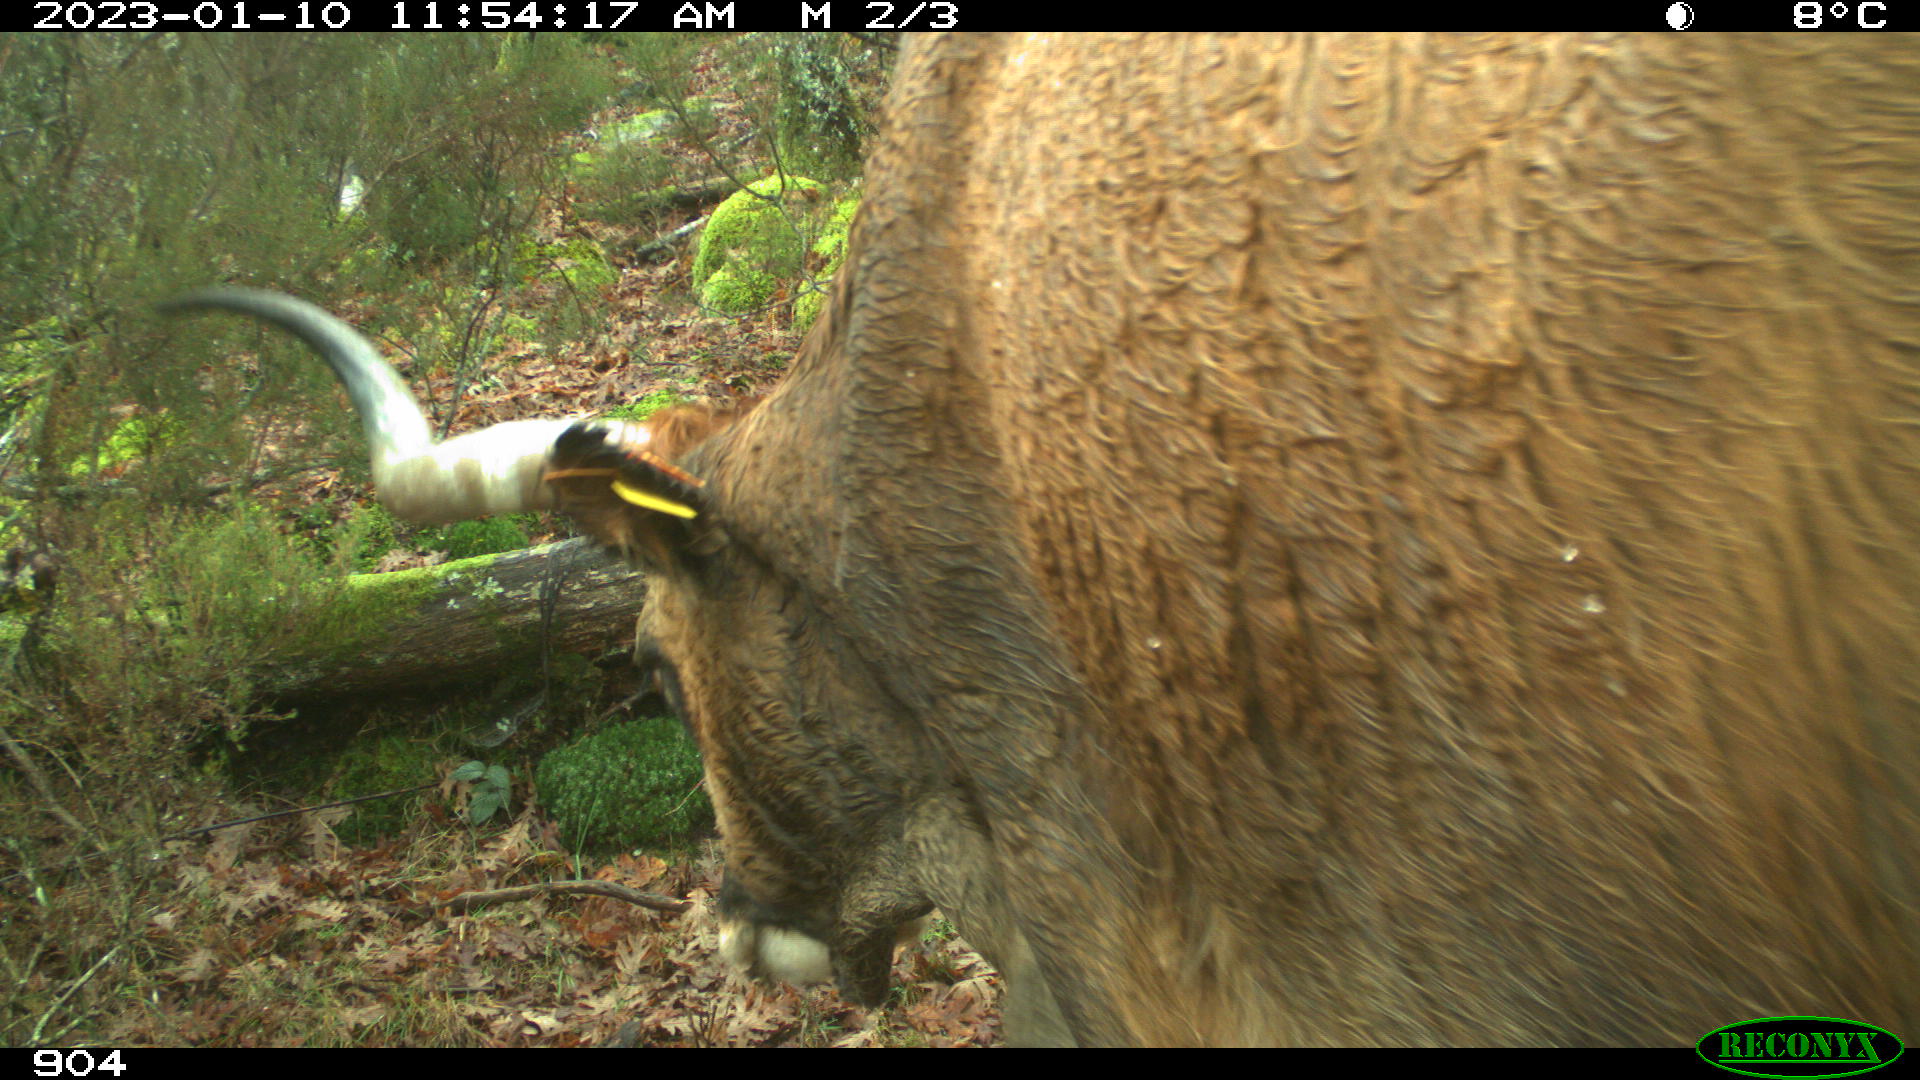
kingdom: Animalia
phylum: Chordata
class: Mammalia
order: Artiodactyla
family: Bovidae
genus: Bos
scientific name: Bos taurus
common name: Domesticated cattle
